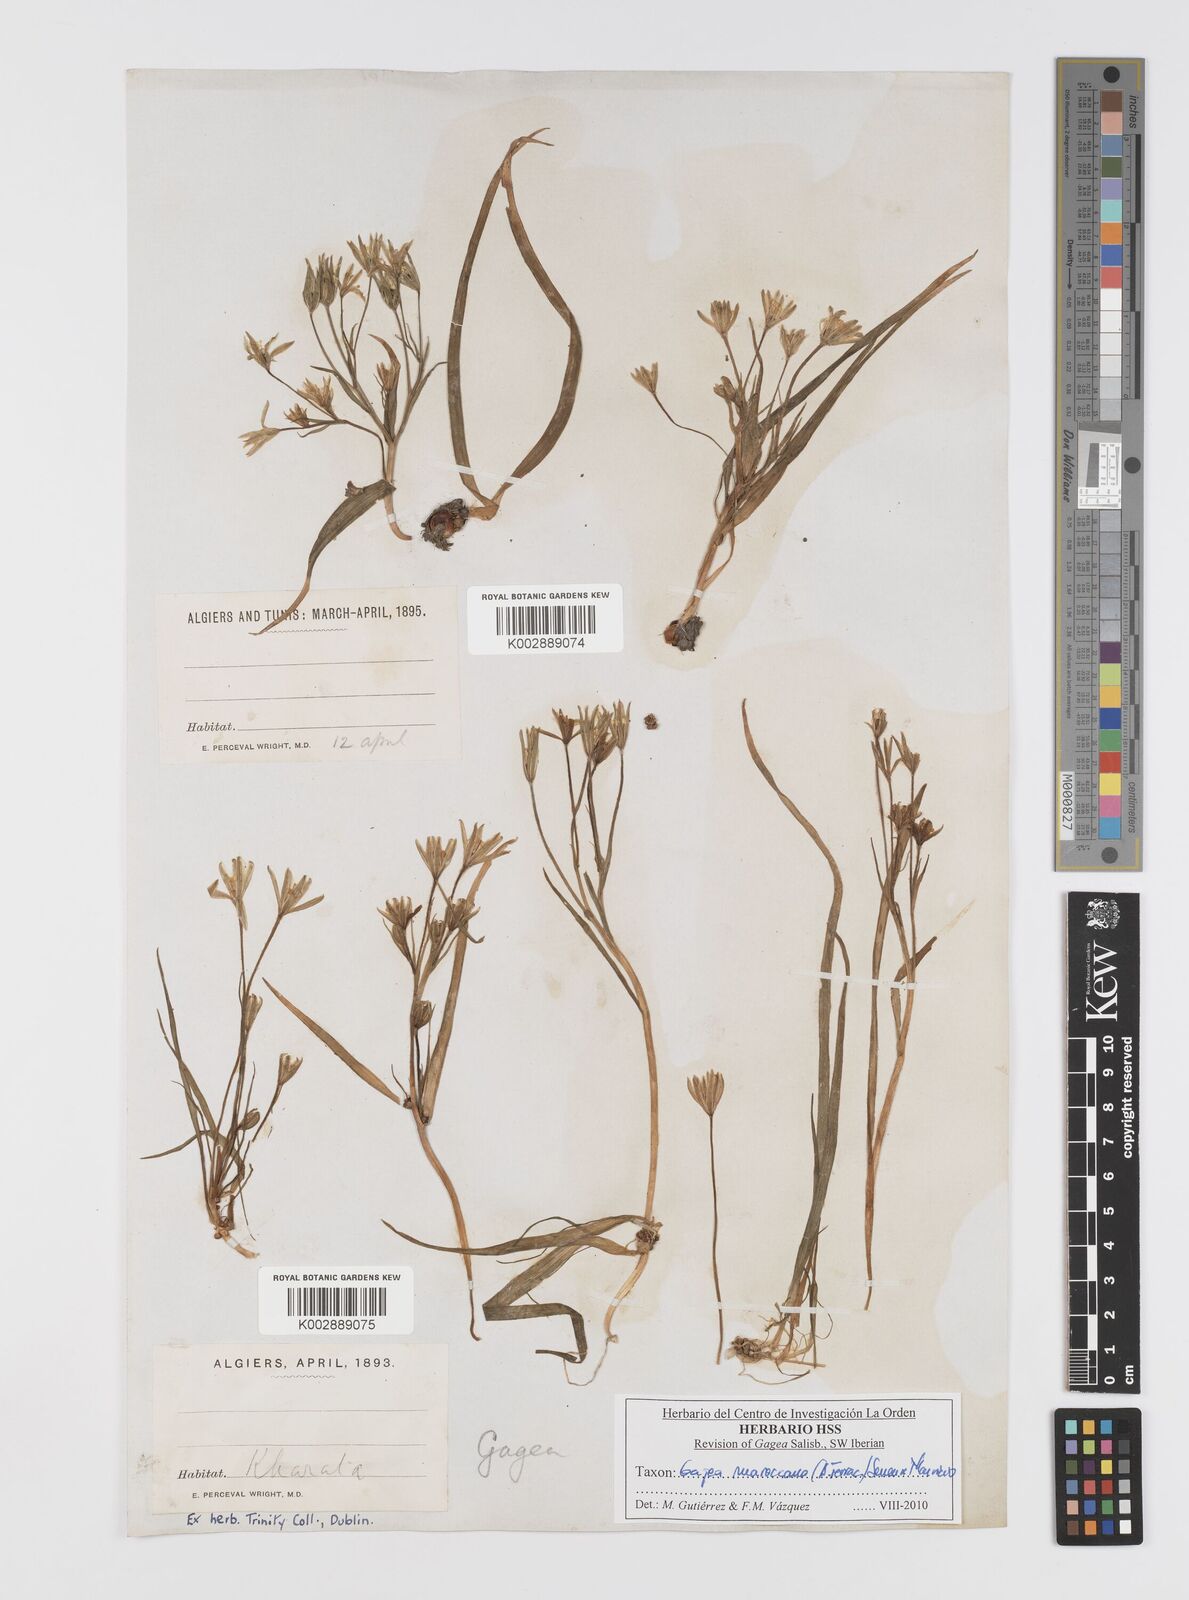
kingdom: Plantae
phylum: Tracheophyta
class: Liliopsida
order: Liliales
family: Liliaceae
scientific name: Liliaceae
